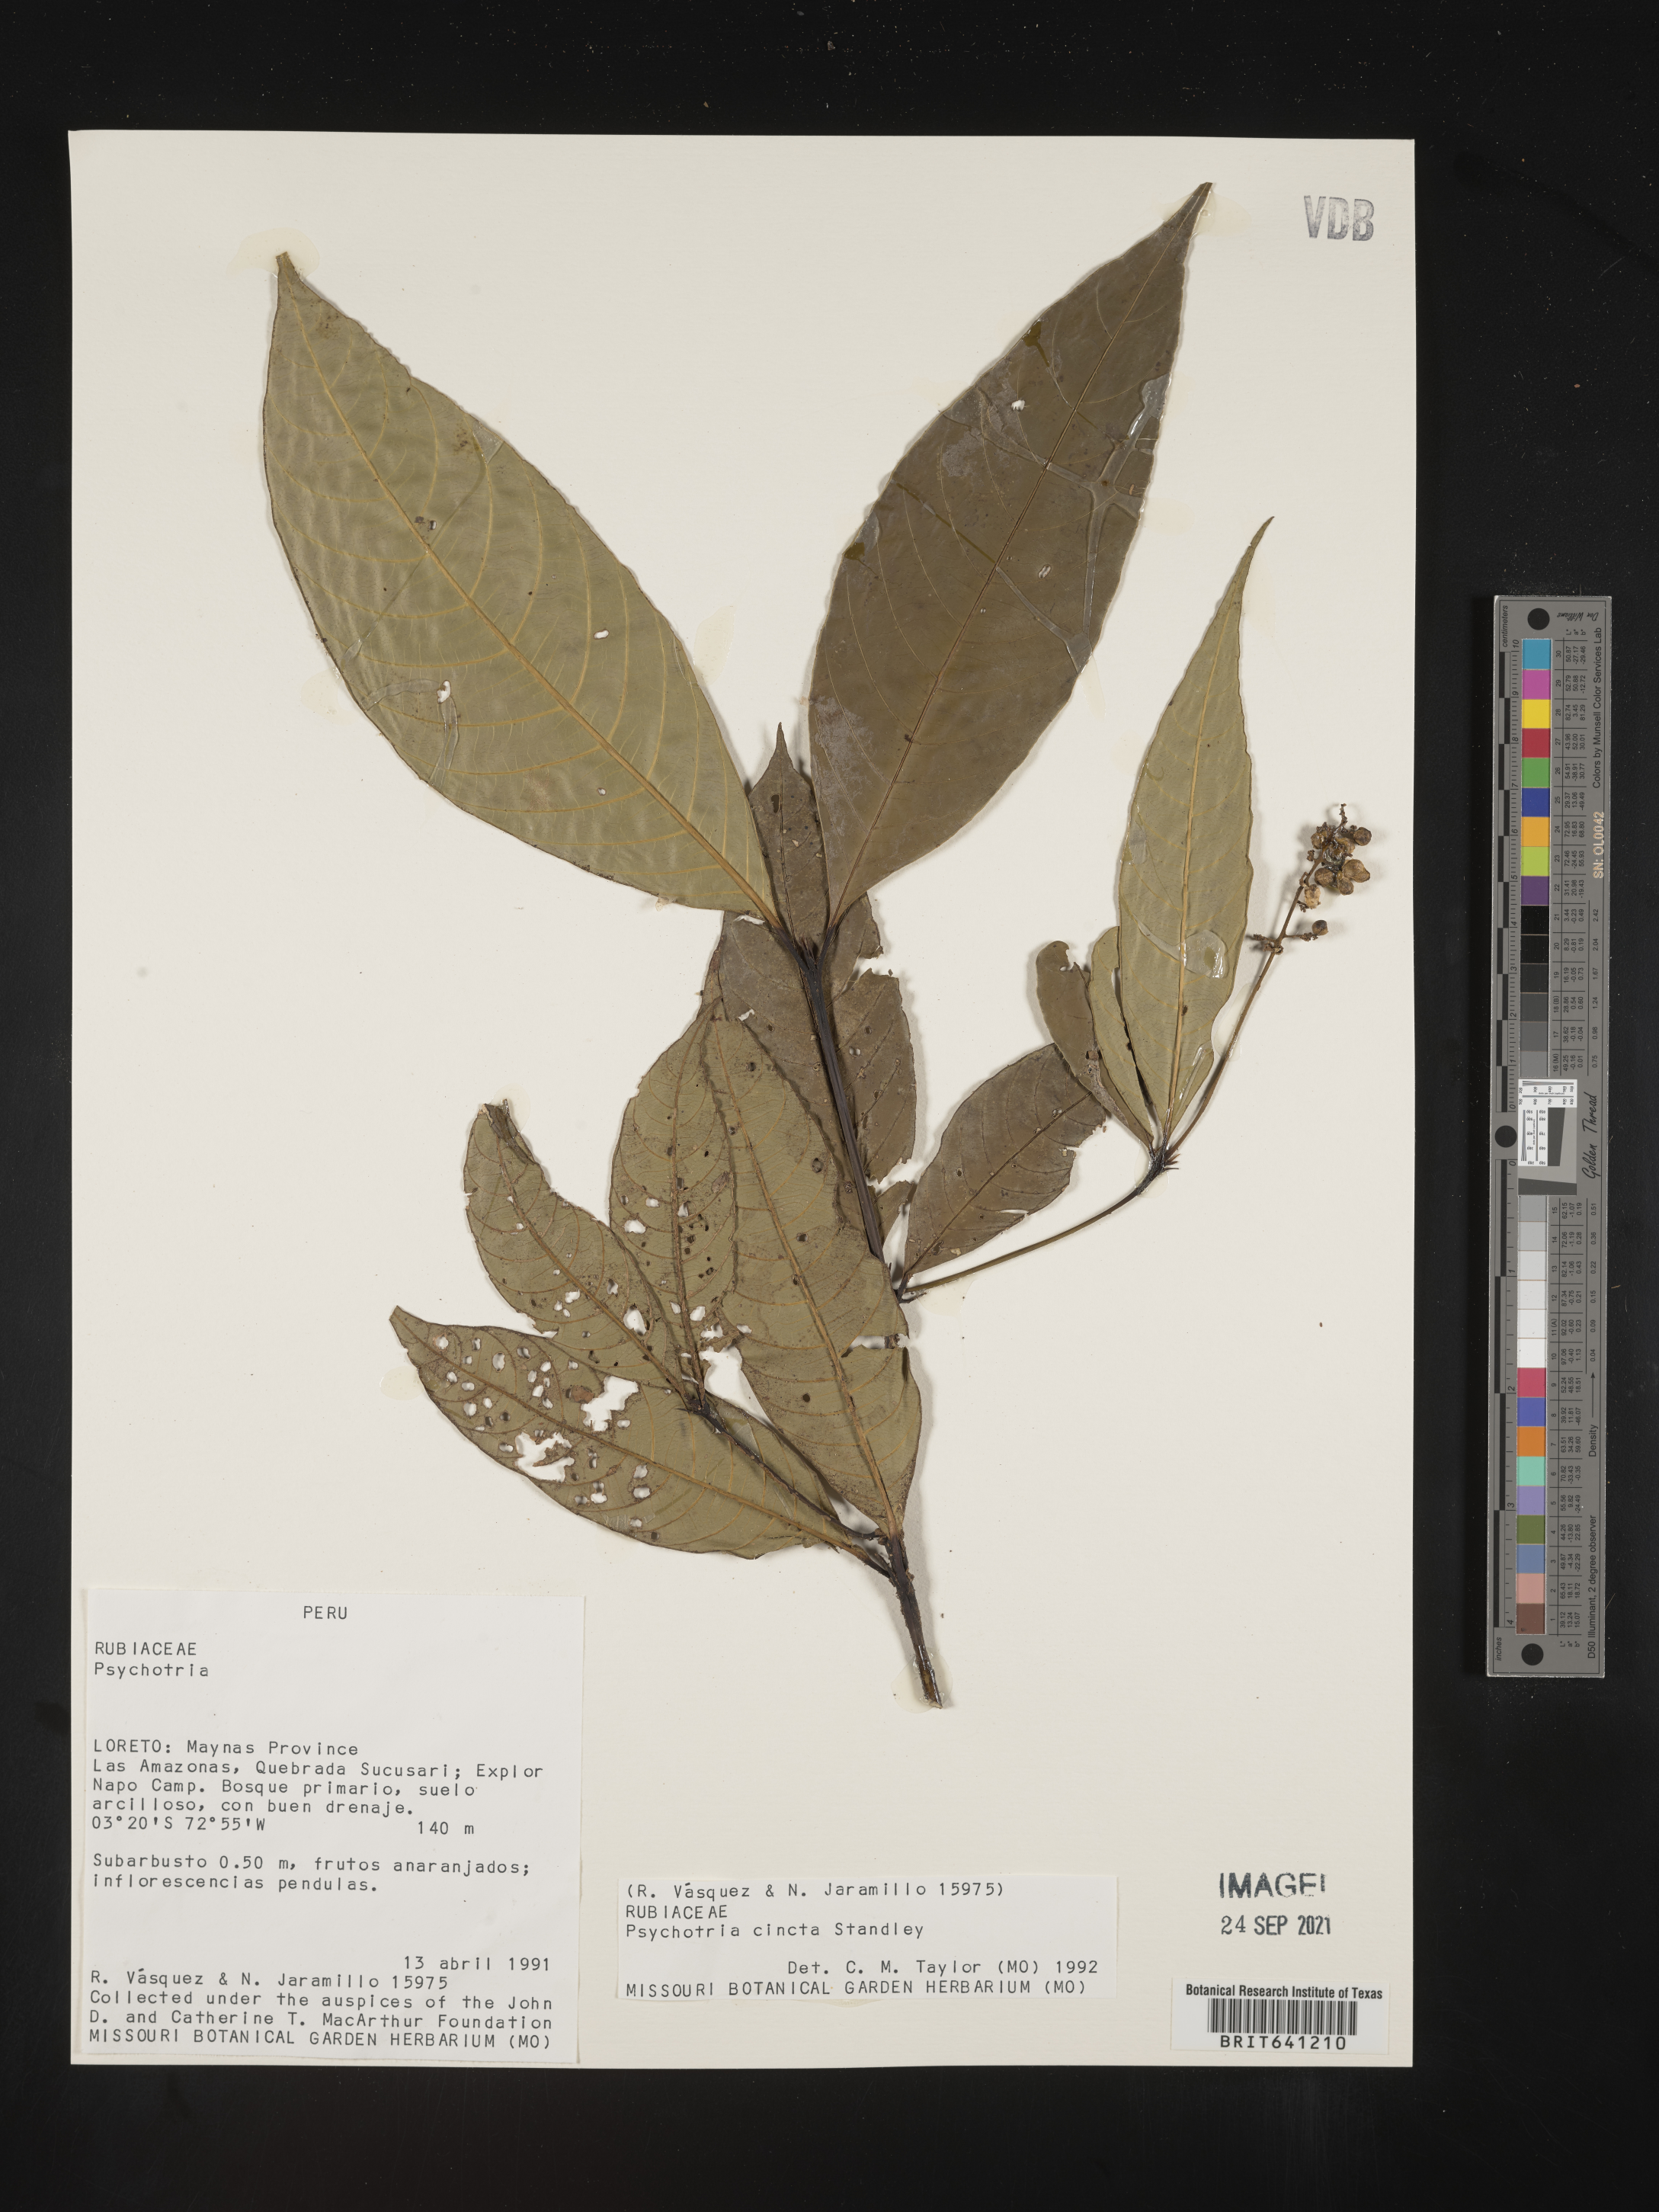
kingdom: Plantae
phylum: Tracheophyta
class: Magnoliopsida
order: Gentianales
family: Rubiaceae
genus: Psychotria
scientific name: Psychotria
